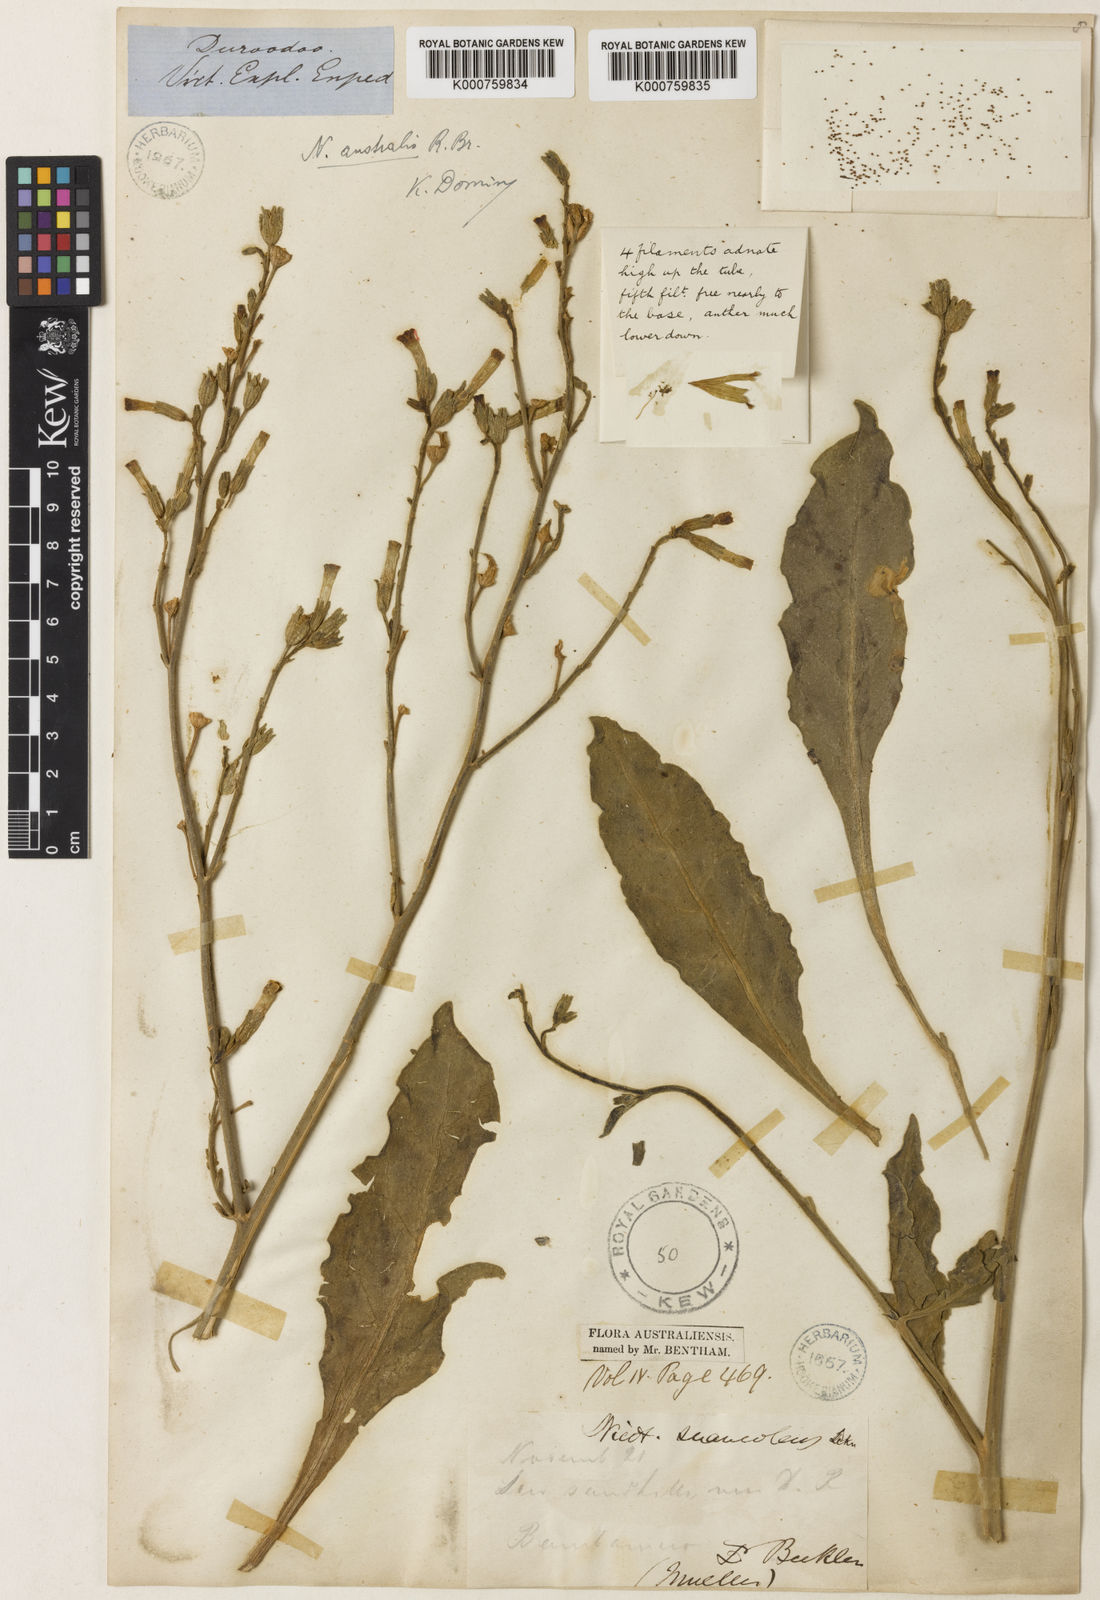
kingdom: Plantae
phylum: Tracheophyta
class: Magnoliopsida
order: Solanales
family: Solanaceae
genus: Nicotiana
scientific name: Nicotiana rotundifolia
